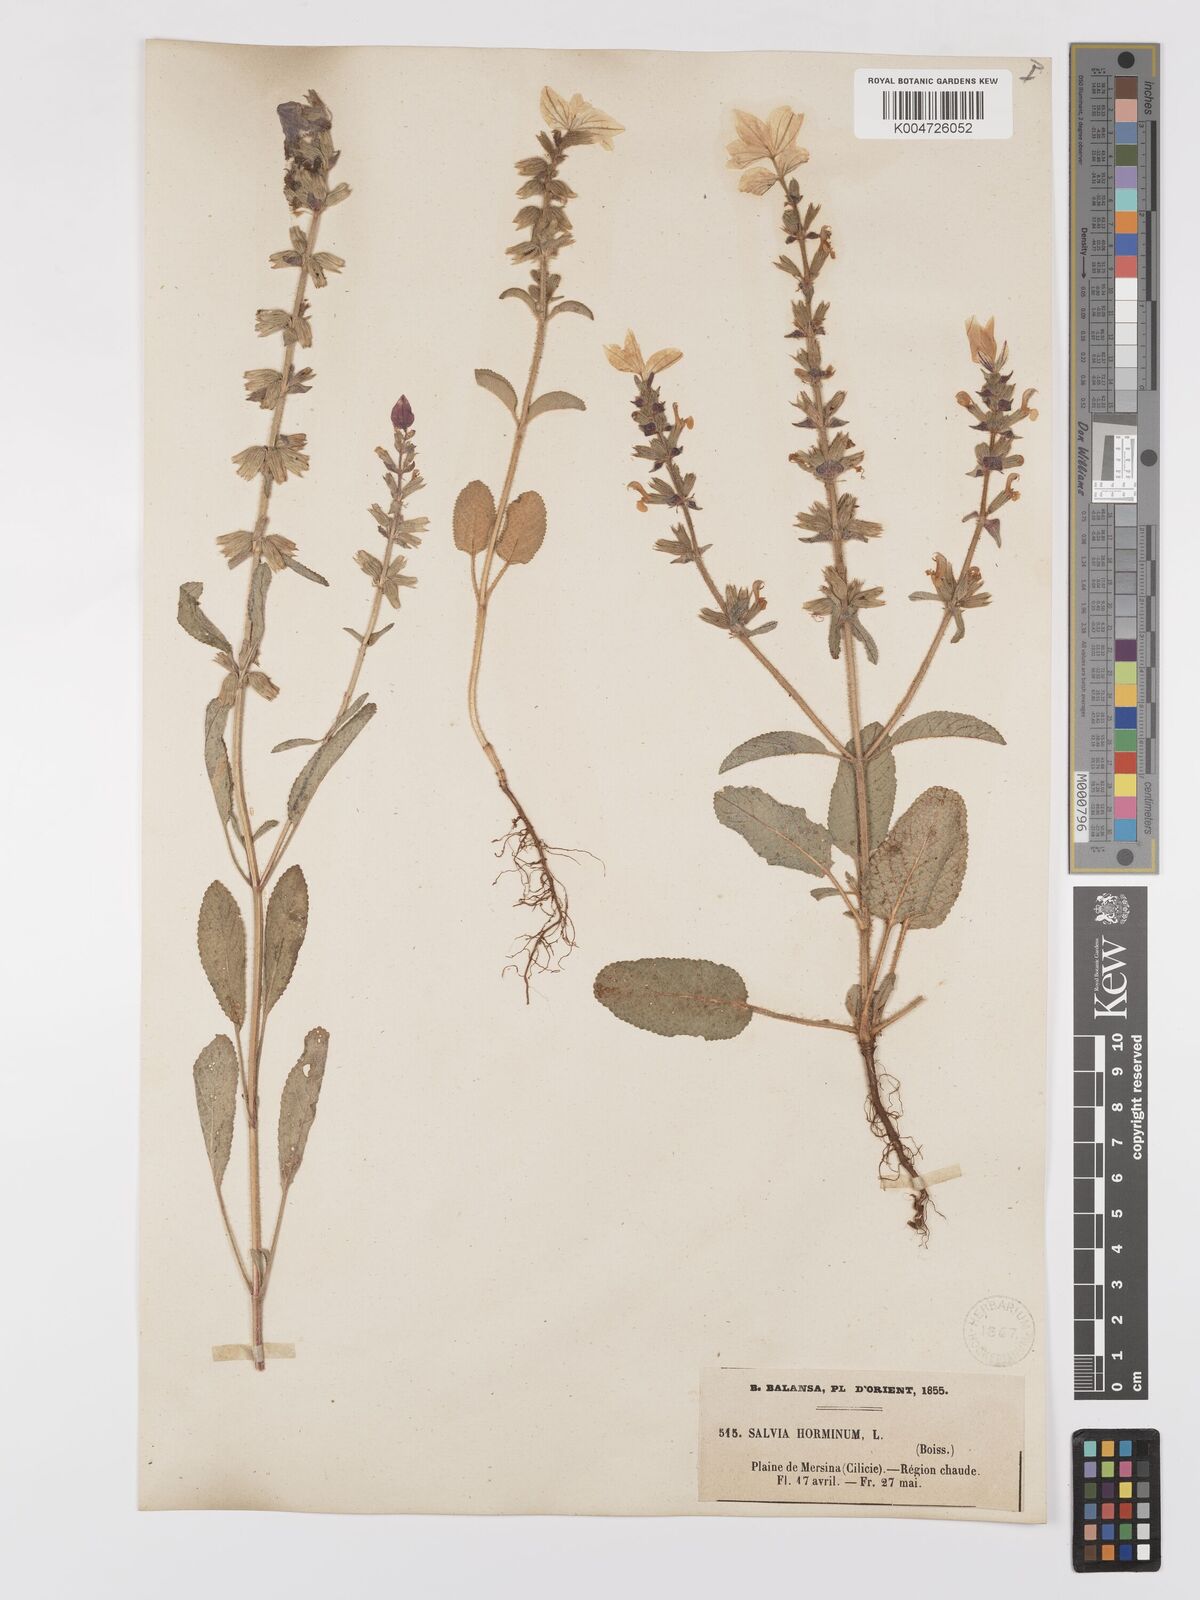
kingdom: Plantae
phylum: Tracheophyta
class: Magnoliopsida
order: Lamiales
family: Lamiaceae
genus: Salvia
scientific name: Salvia viridis
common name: Annual clary
